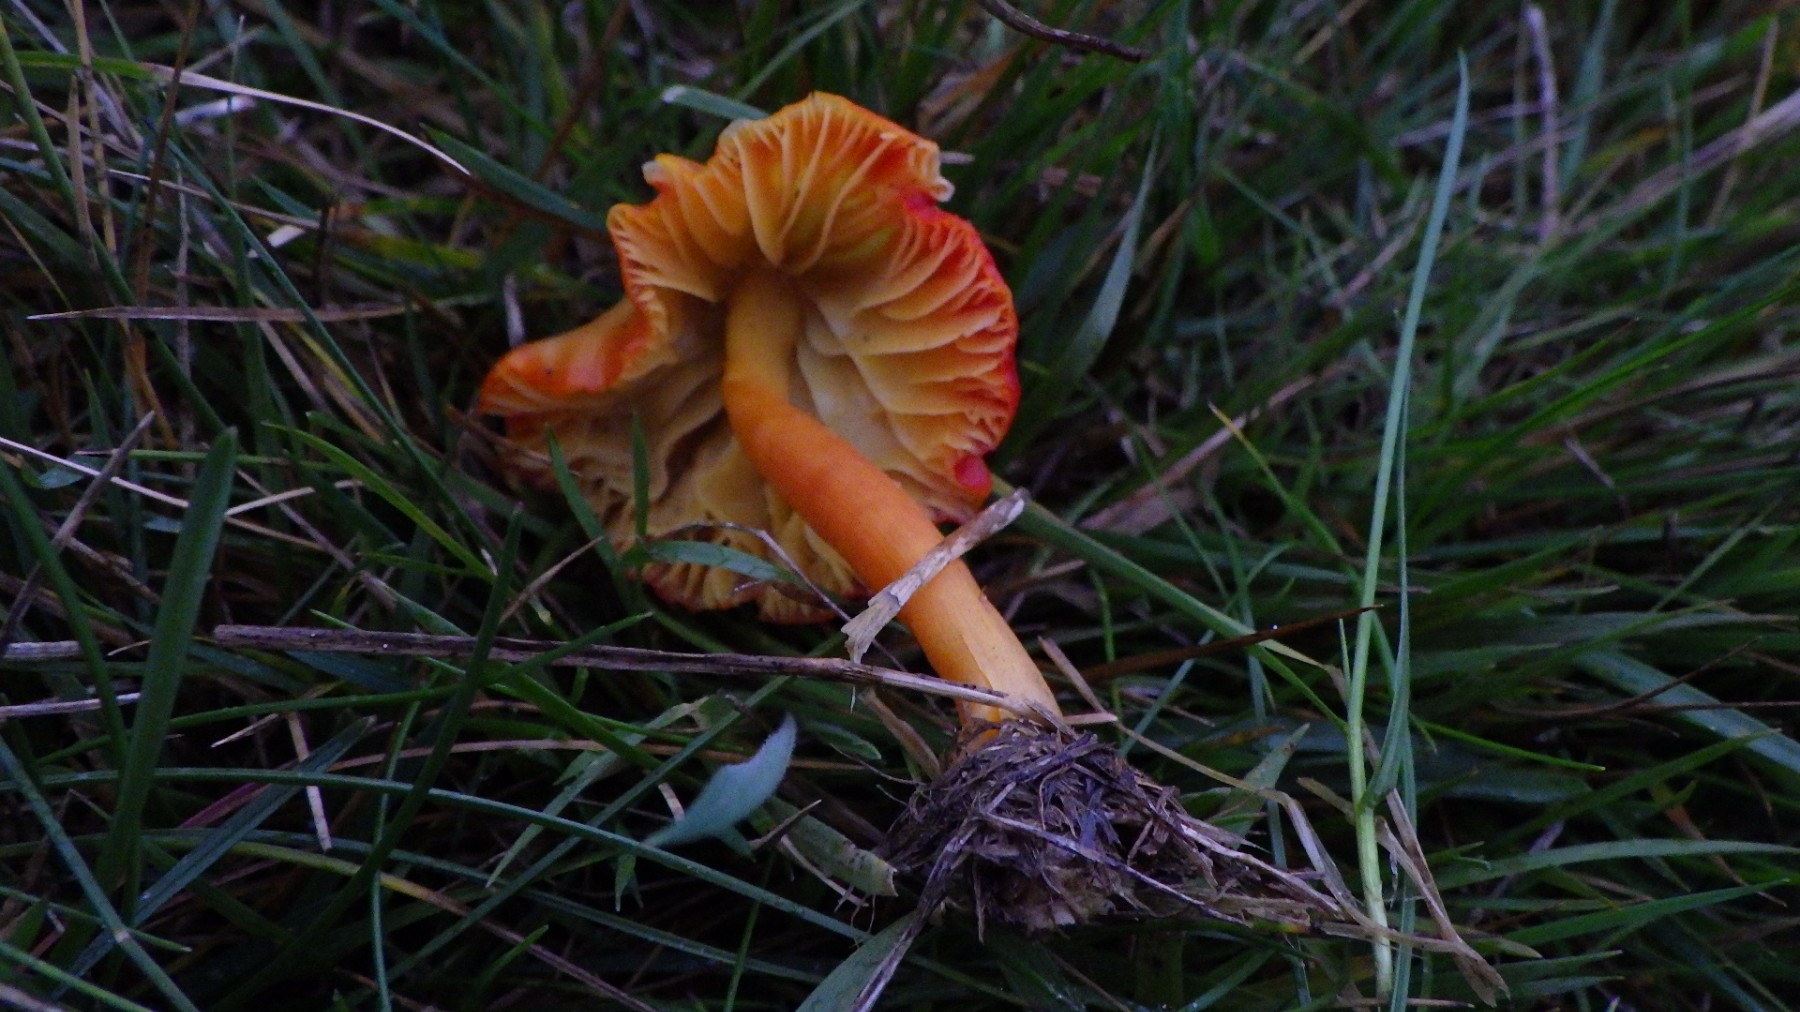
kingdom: Fungi
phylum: Basidiomycota
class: Agaricomycetes
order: Agaricales
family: Hygrophoraceae
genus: Hygrocybe
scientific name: Hygrocybe coccinea
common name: cinnober-vokshat
